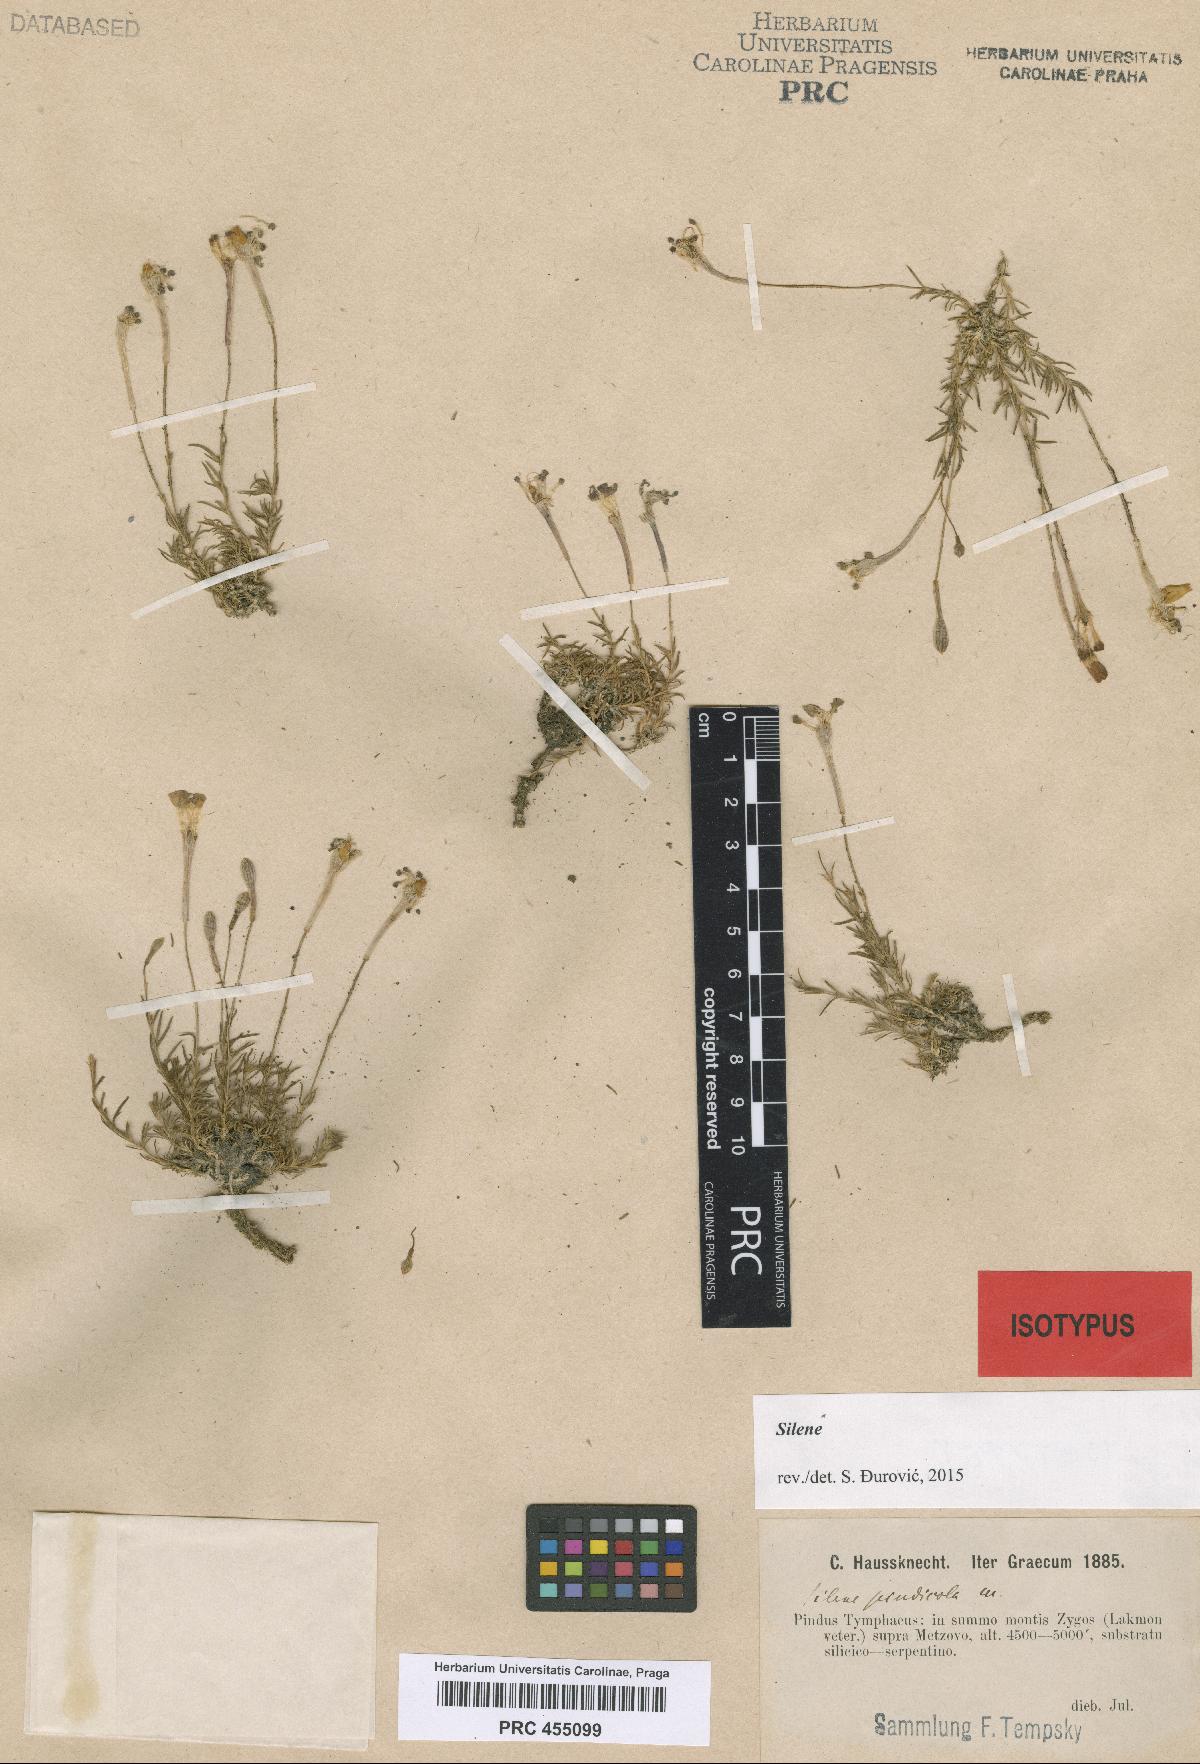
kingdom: Plantae
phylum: Tracheophyta
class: Magnoliopsida
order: Caryophyllales
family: Caryophyllaceae
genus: Silene
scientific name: Silene parnassica
